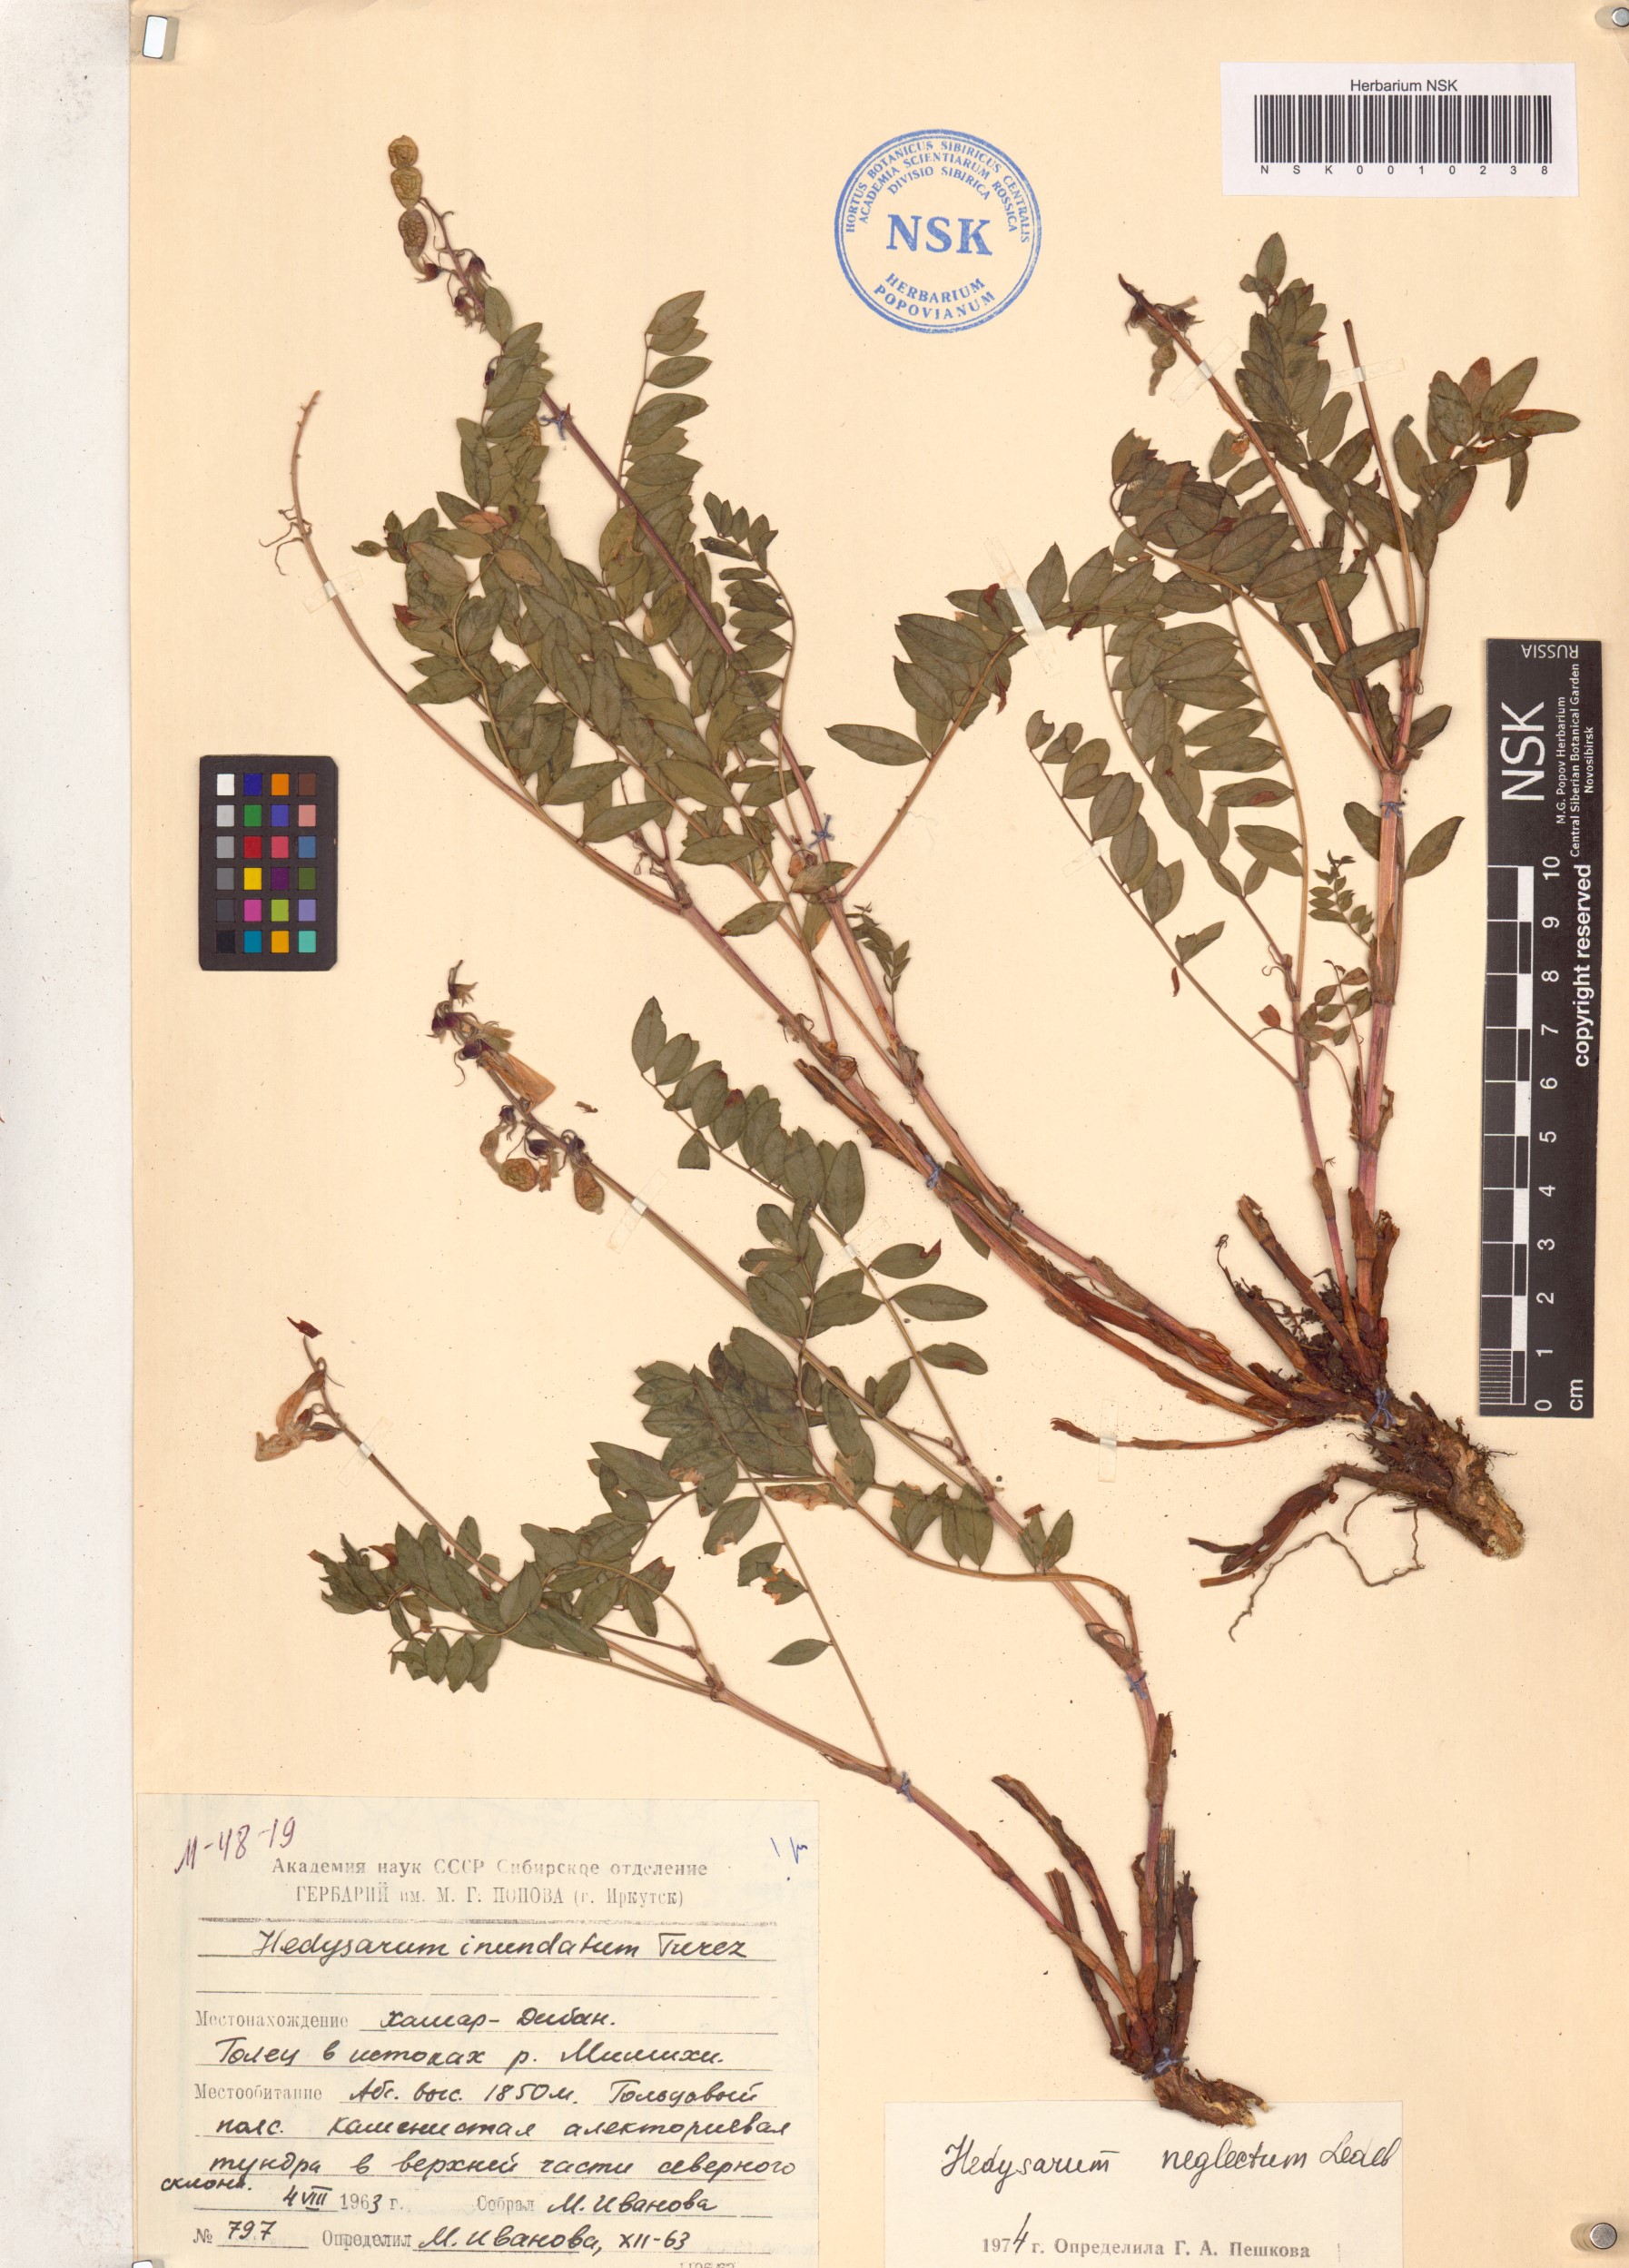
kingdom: Plantae
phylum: Tracheophyta
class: Magnoliopsida
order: Fabales
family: Fabaceae
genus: Hedysarum
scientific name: Hedysarum neglectum
